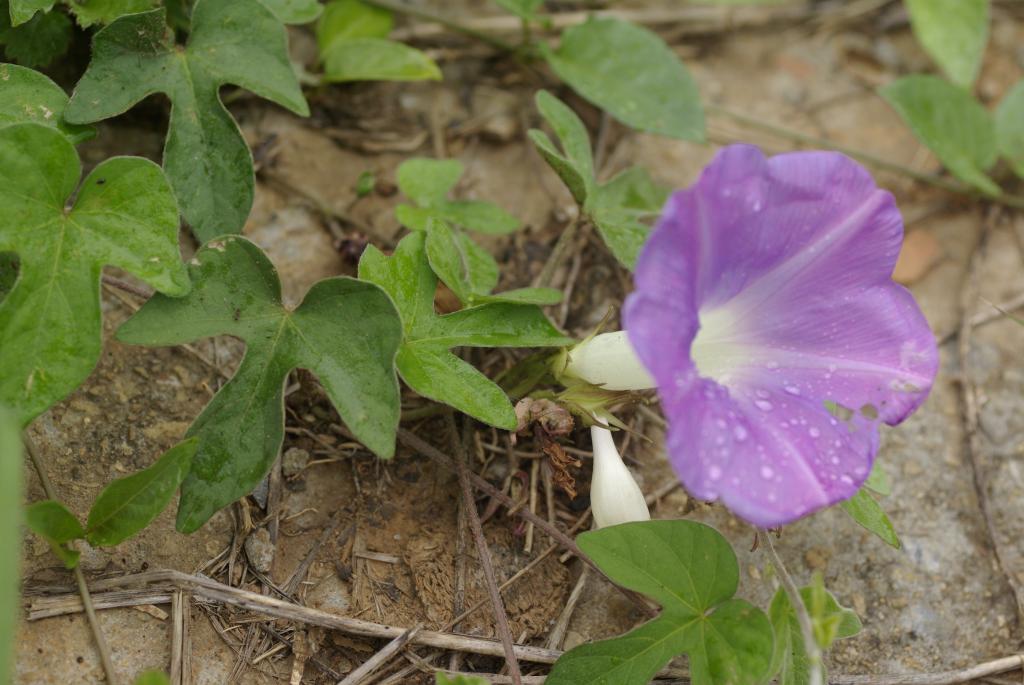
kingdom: Plantae
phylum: Tracheophyta
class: Magnoliopsida
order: Solanales
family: Convolvulaceae
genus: Ipomoea
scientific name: Ipomoea indica
